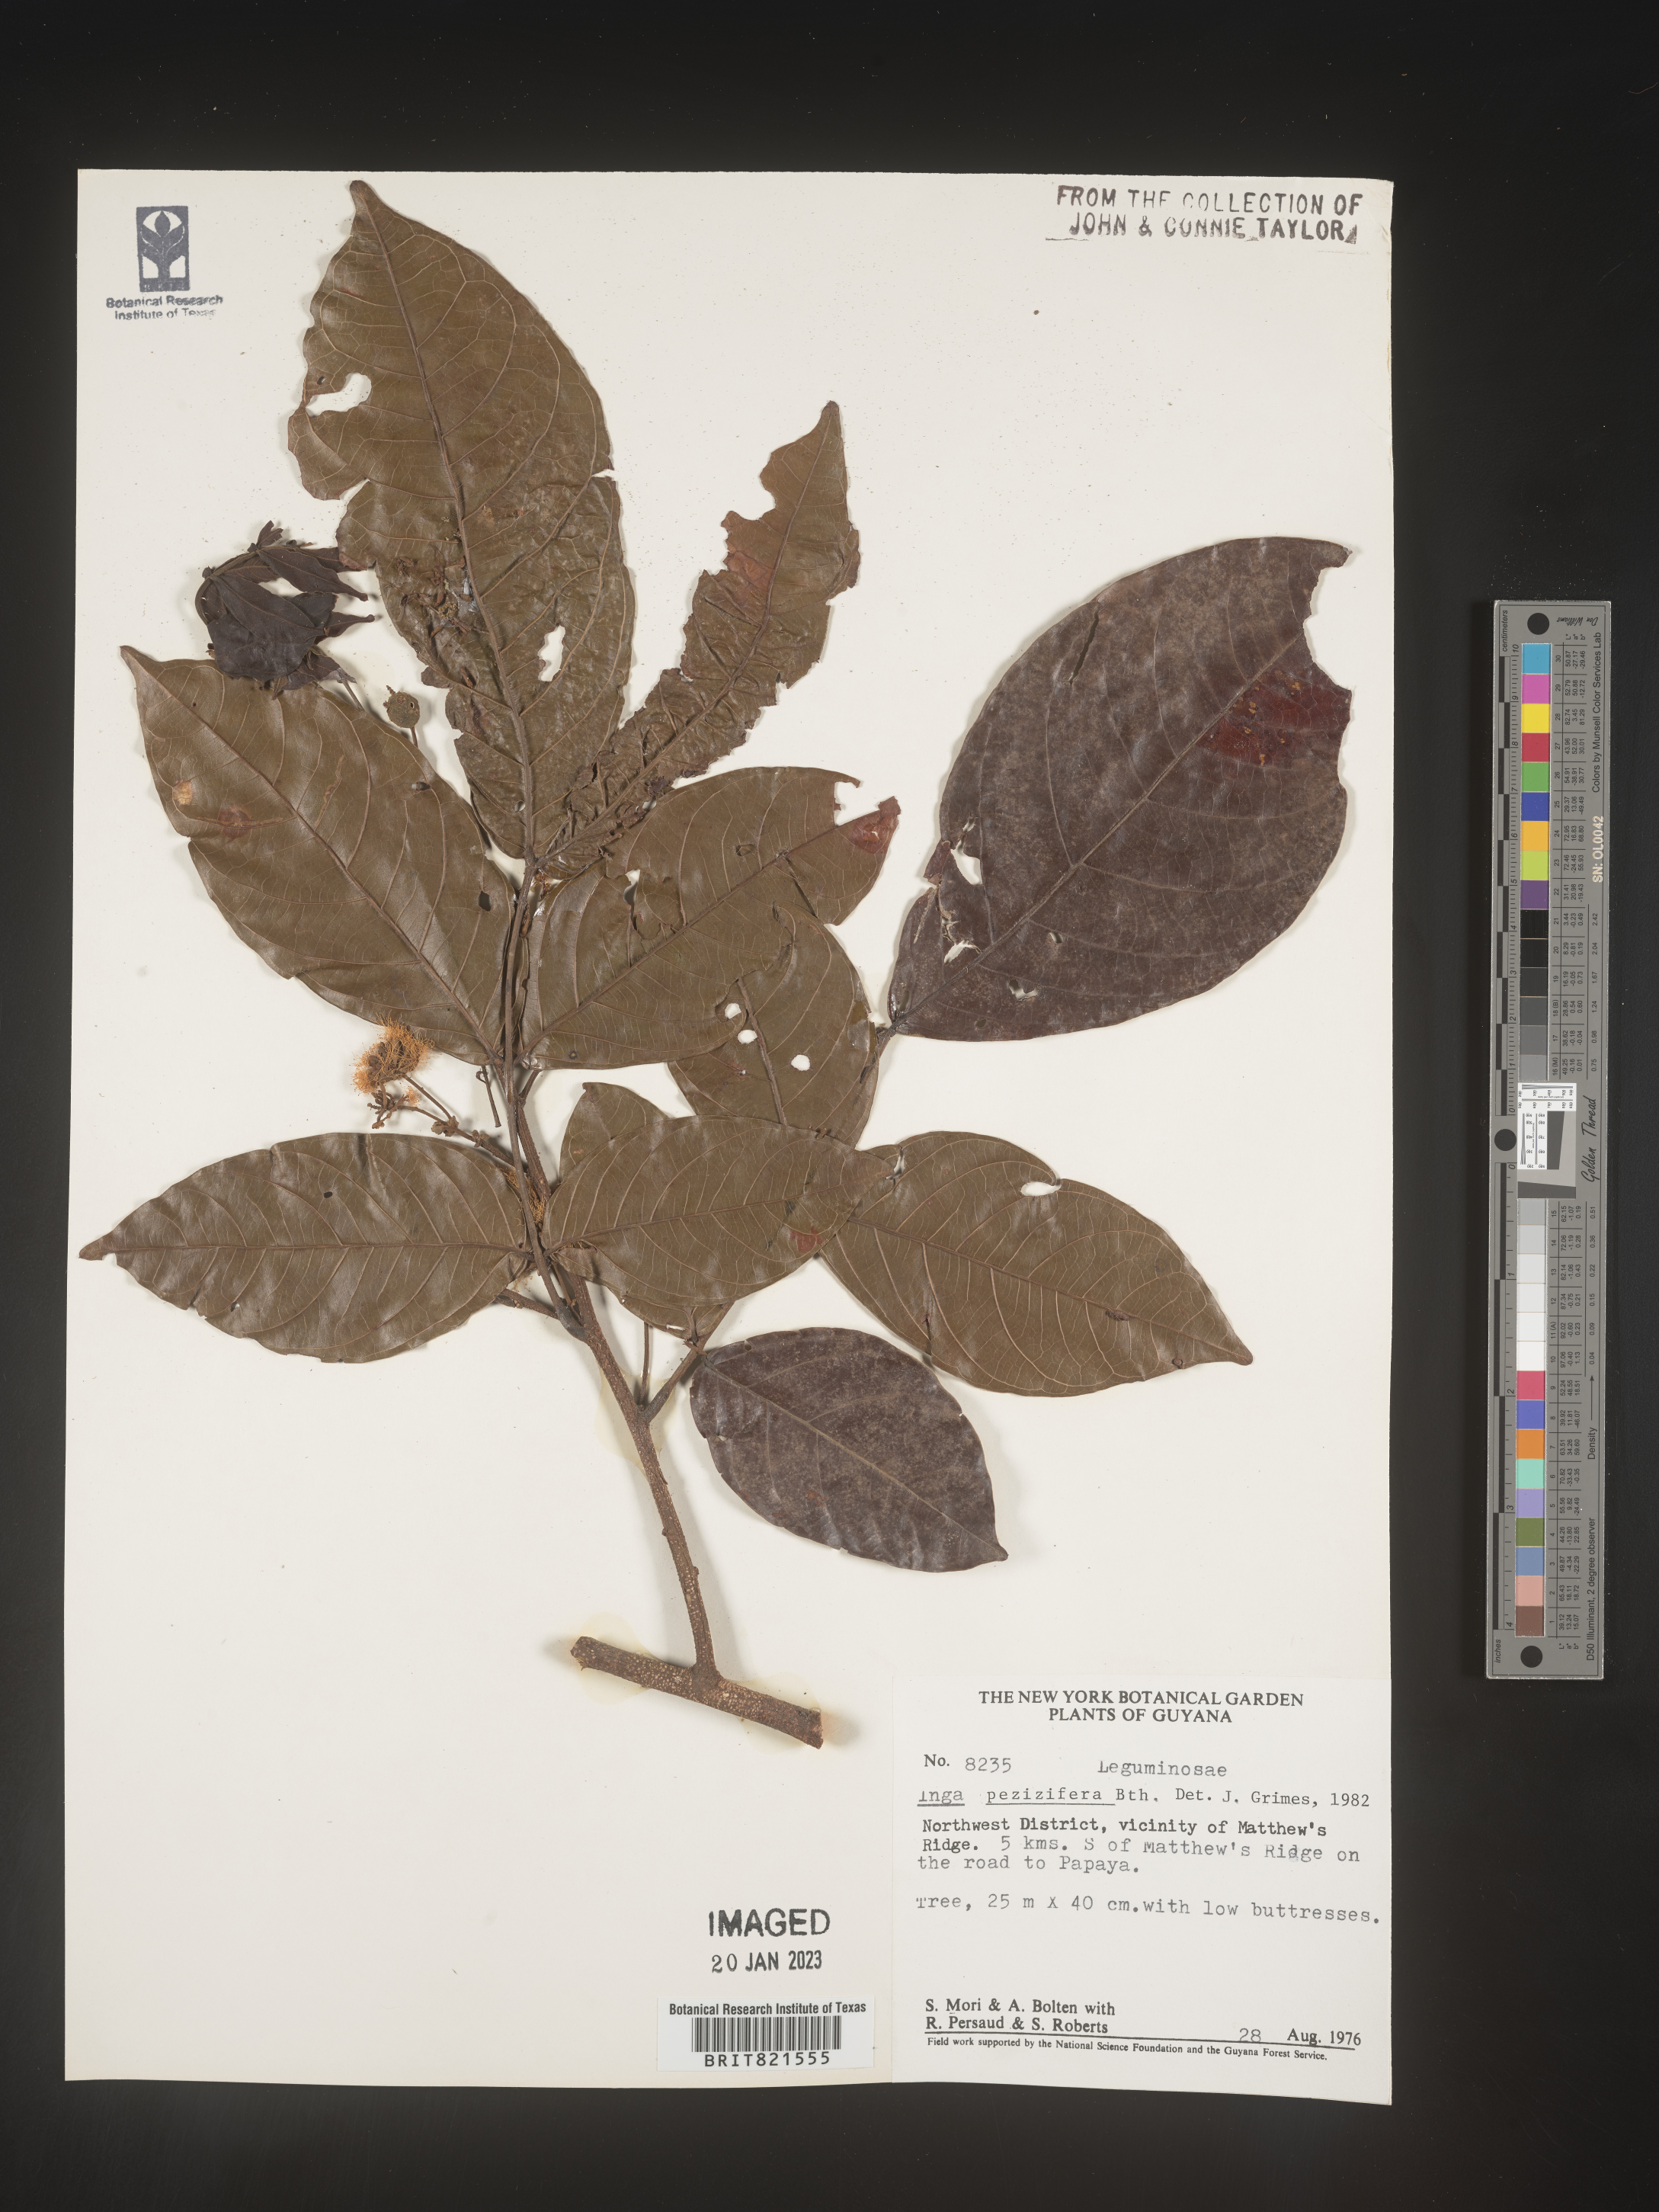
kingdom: Plantae
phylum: Tracheophyta
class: Magnoliopsida
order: Fabales
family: Fabaceae
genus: Inga
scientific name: Inga
